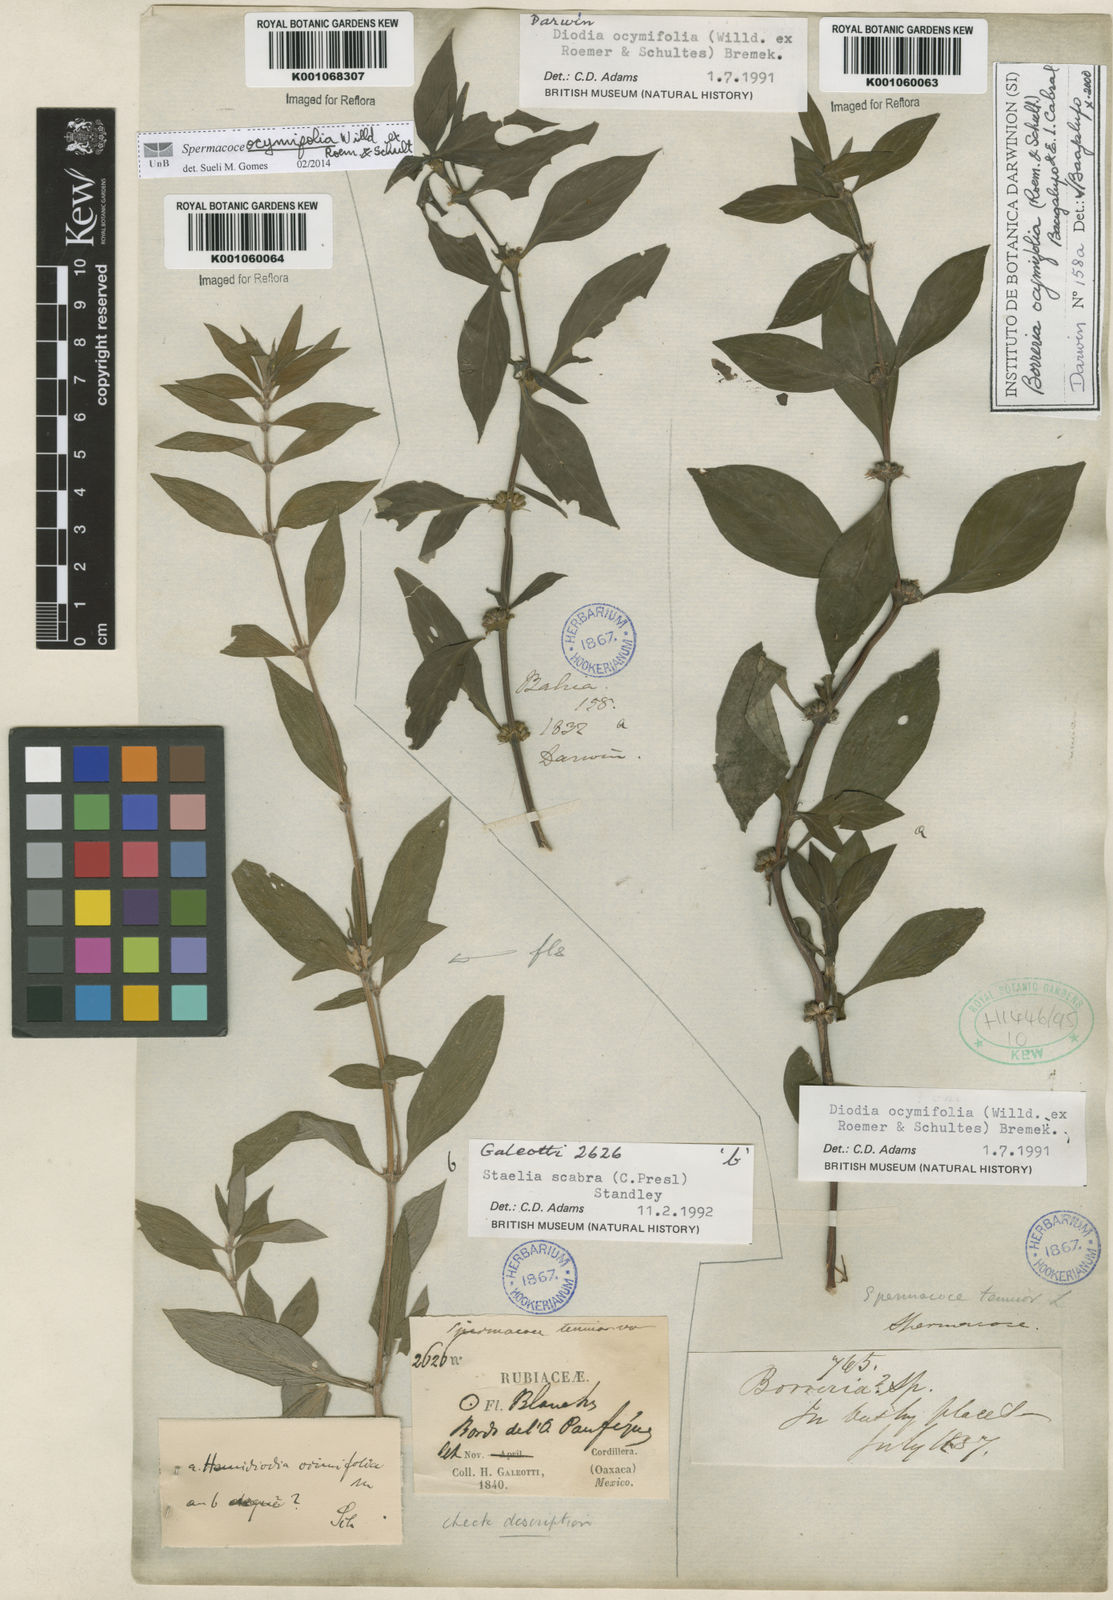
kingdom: Plantae
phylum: Tracheophyta
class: Magnoliopsida
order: Gentianales
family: Rubiaceae
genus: Spermacoce
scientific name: Spermacoce
